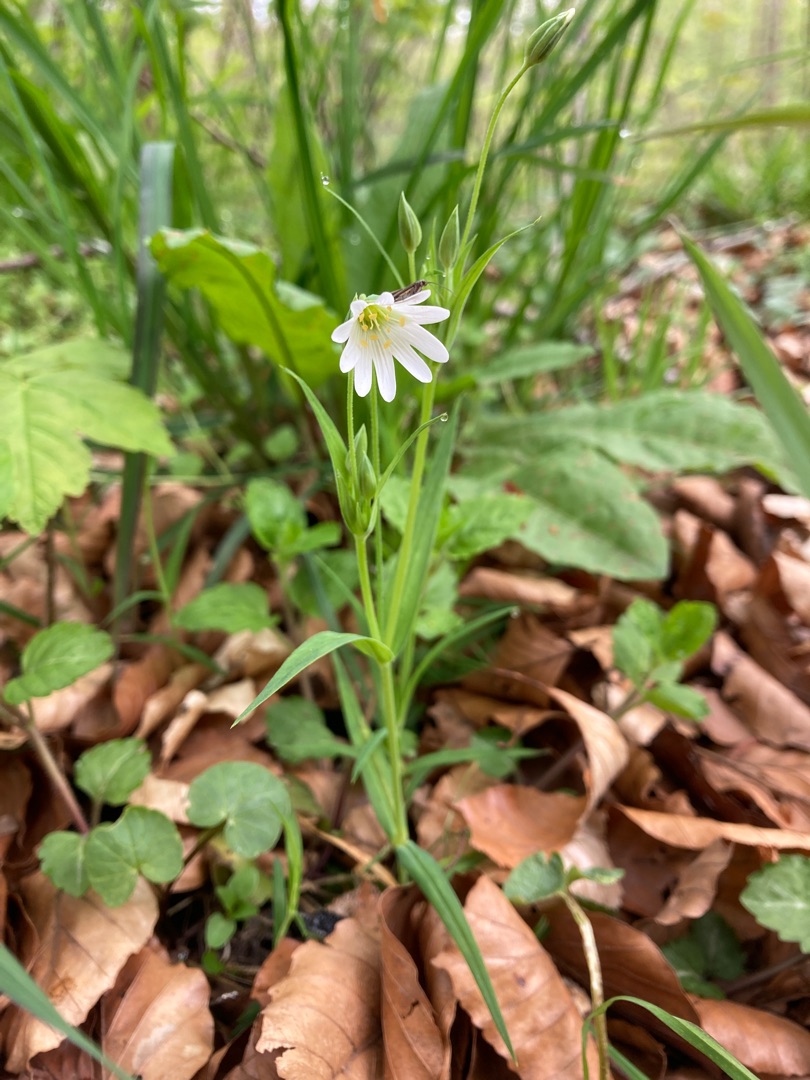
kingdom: Plantae
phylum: Tracheophyta
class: Magnoliopsida
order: Caryophyllales
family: Caryophyllaceae
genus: Rabelera
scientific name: Rabelera holostea
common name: Stor fladstjerne
